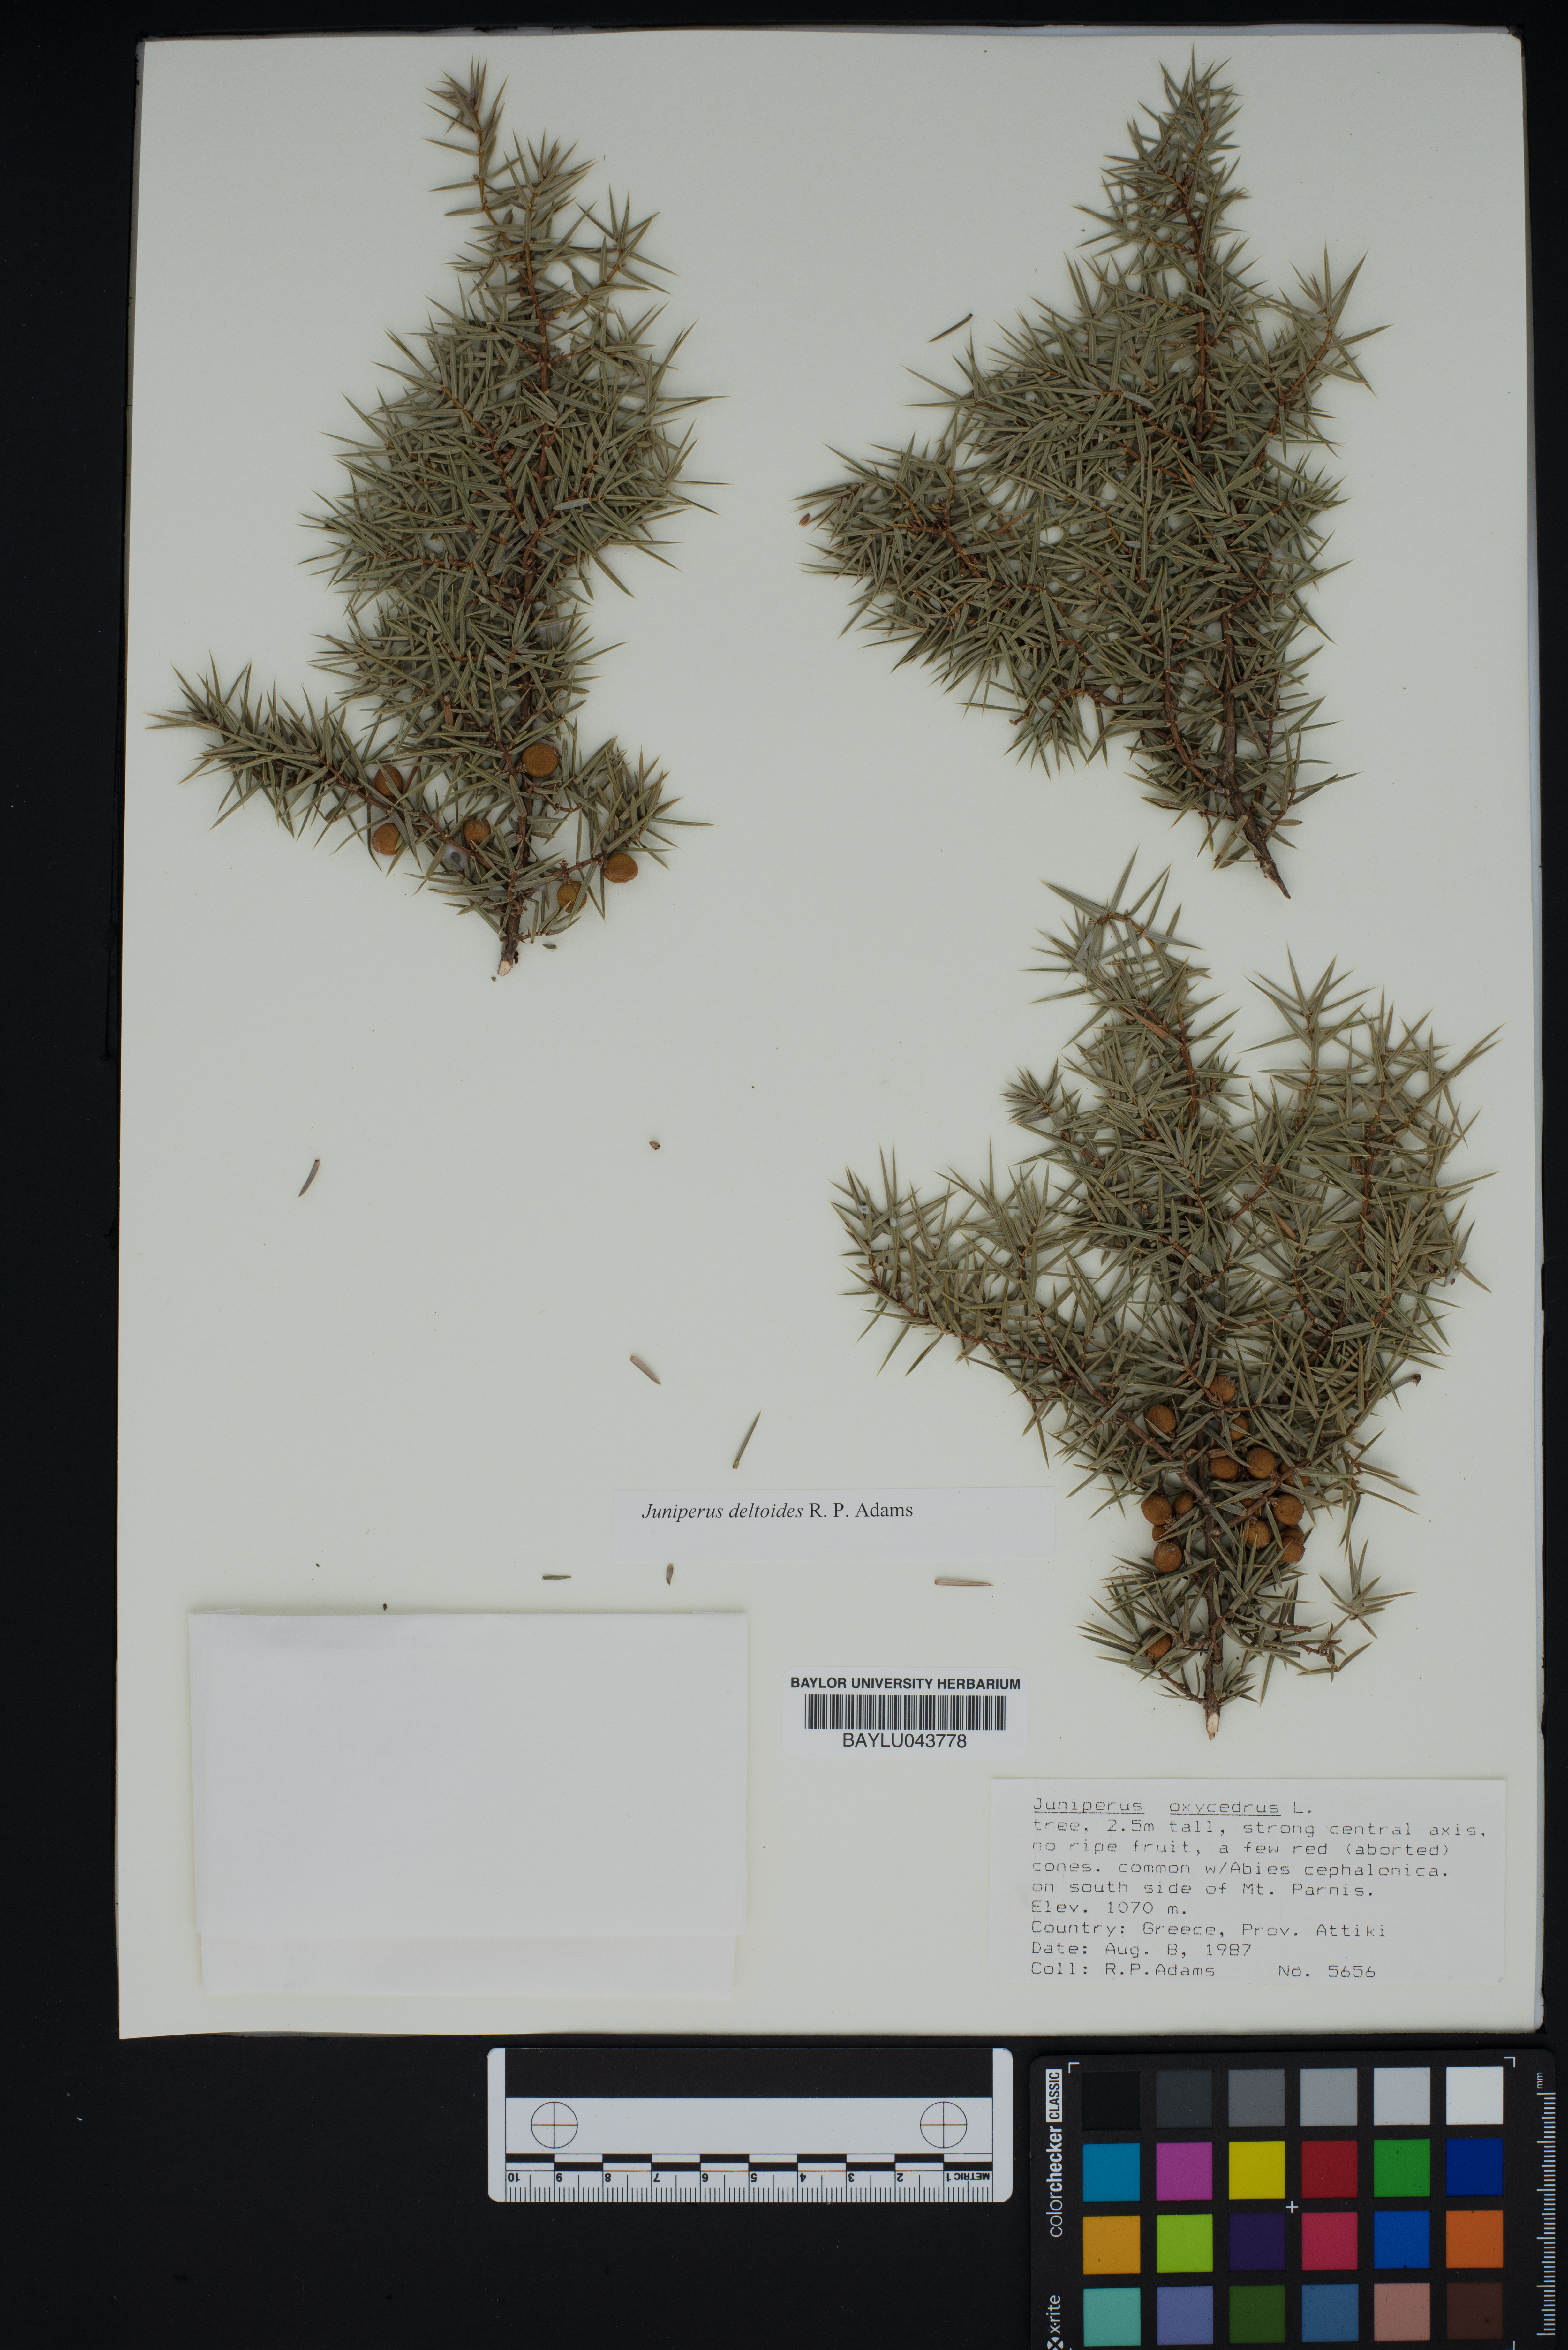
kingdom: Plantae
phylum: Tracheophyta
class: Pinopsida
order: Pinales
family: Cupressaceae
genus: Juniperus
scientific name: Juniperus oxycedrus
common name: Prickly juniper
